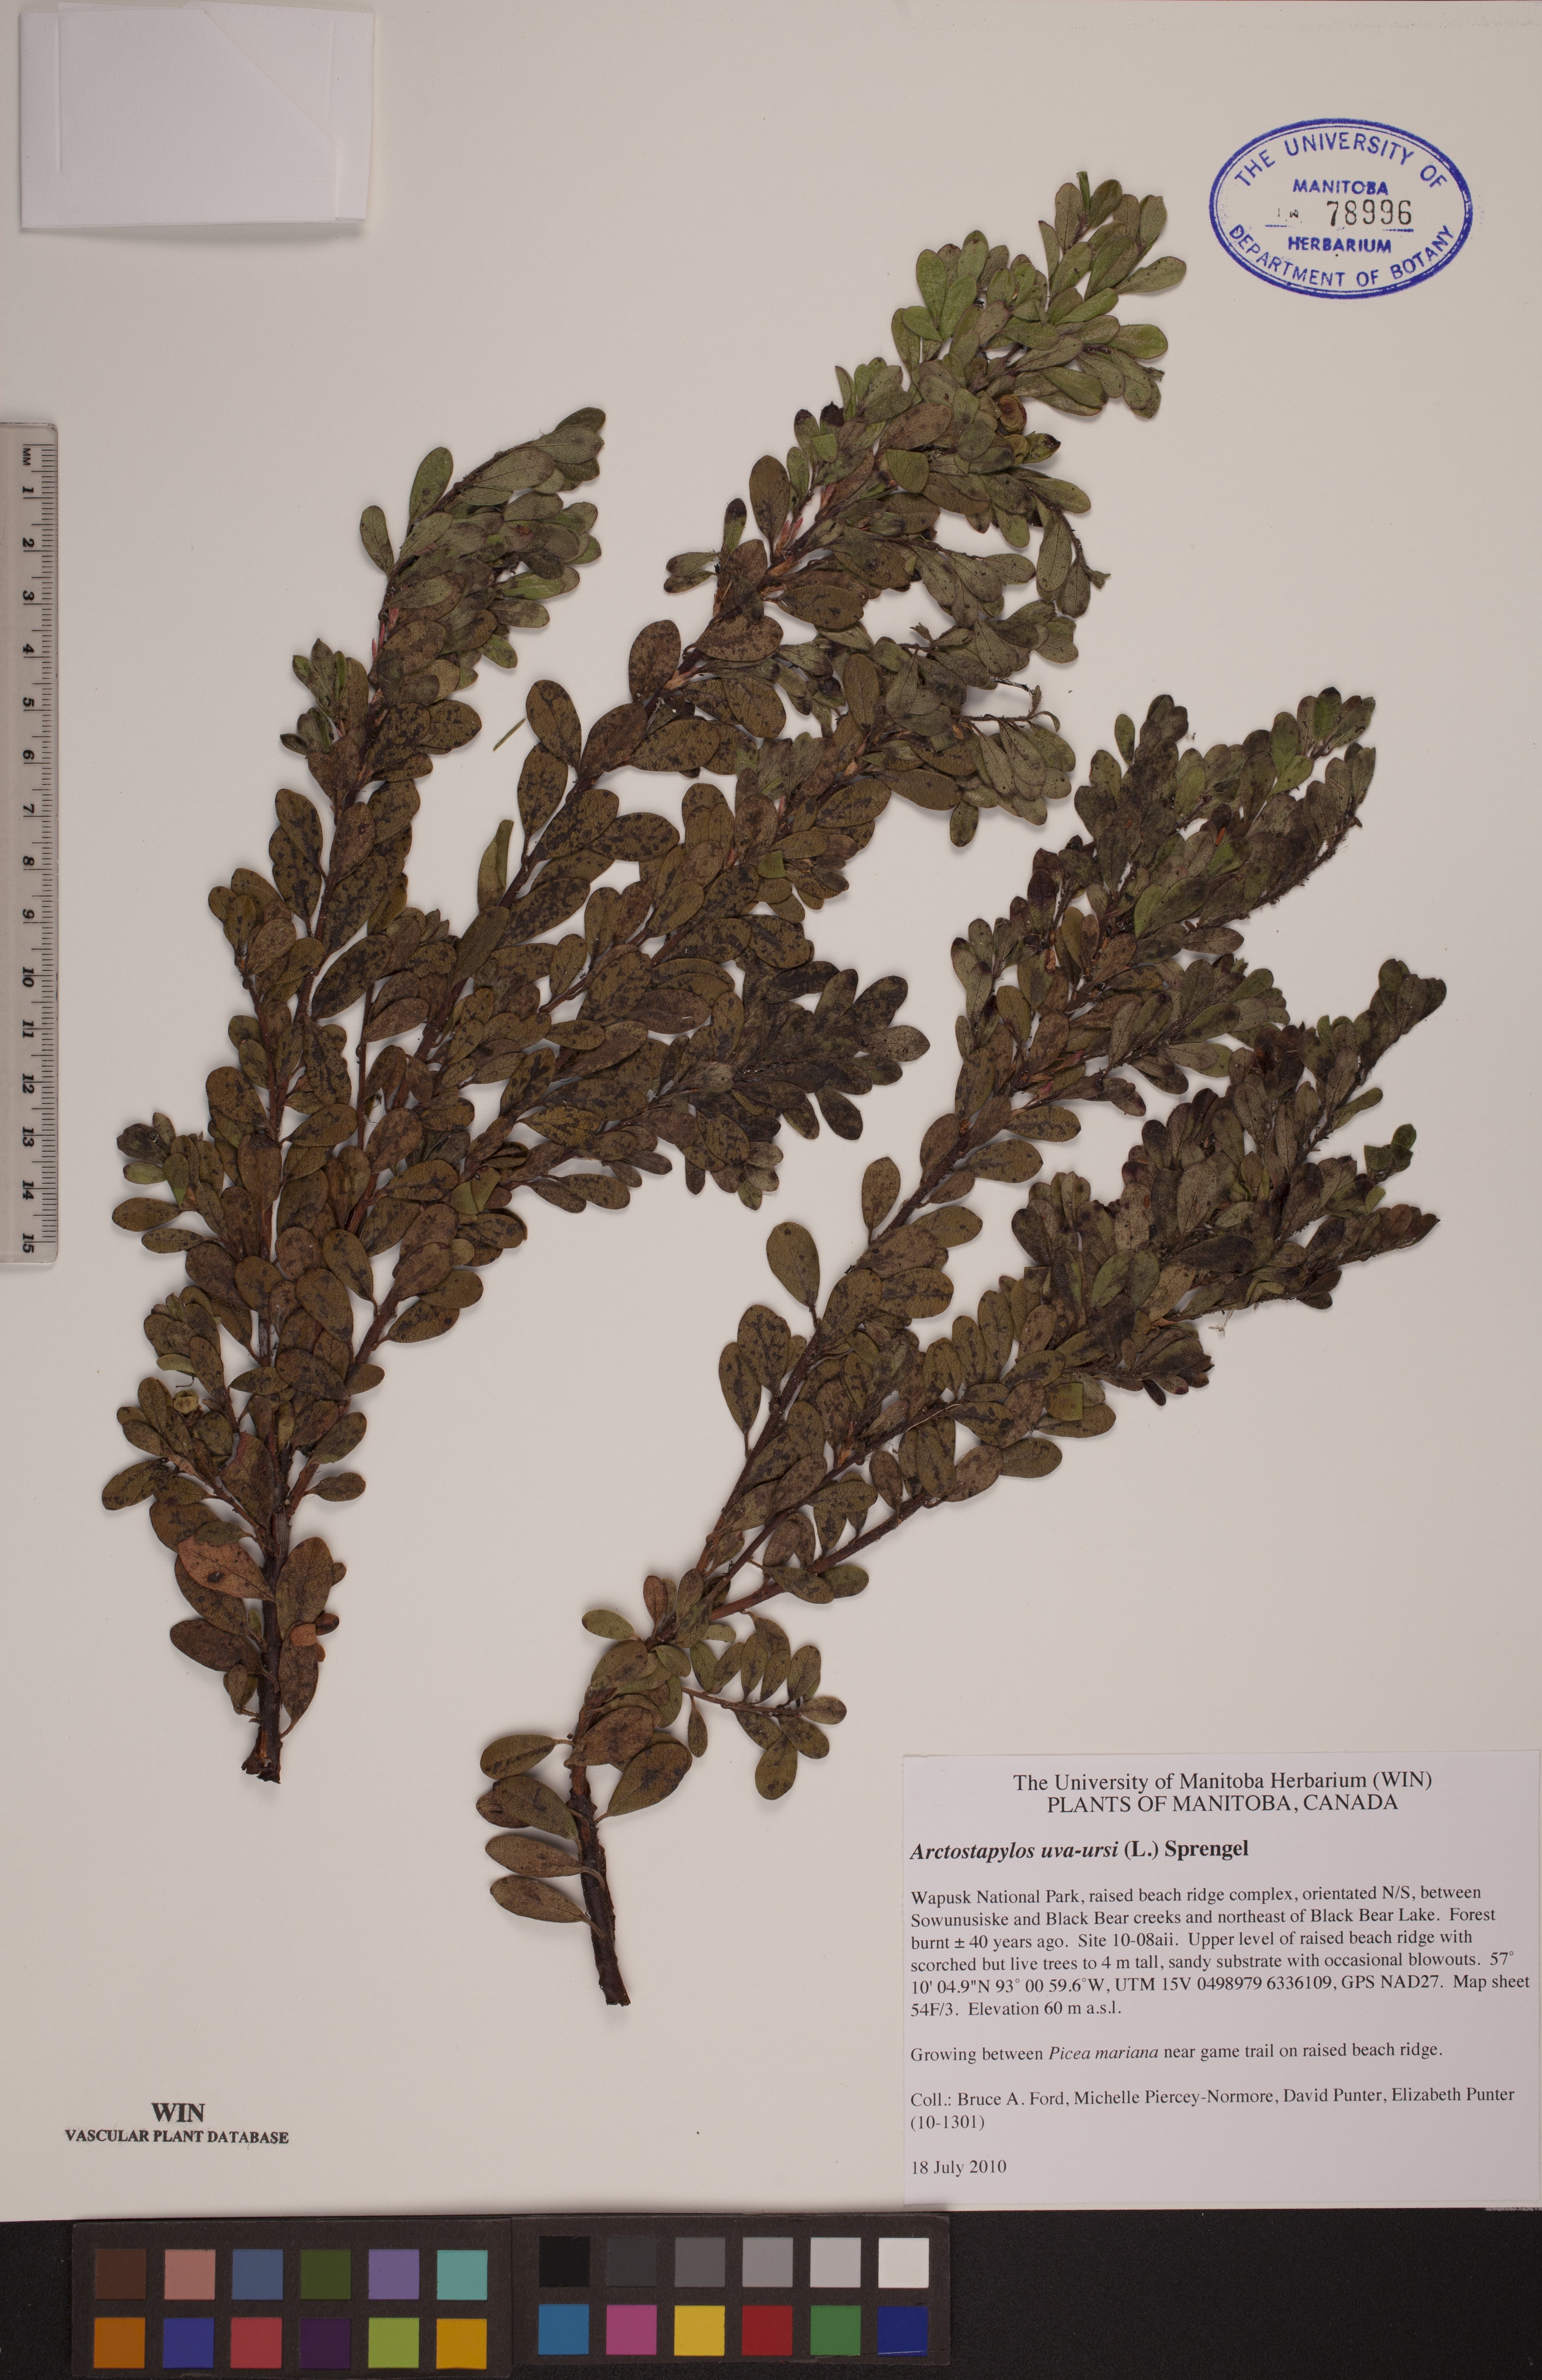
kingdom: Plantae
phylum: Tracheophyta
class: Magnoliopsida
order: Ericales
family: Ericaceae
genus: Arctostaphylos
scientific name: Arctostaphylos uva-ursi
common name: Bearberry
